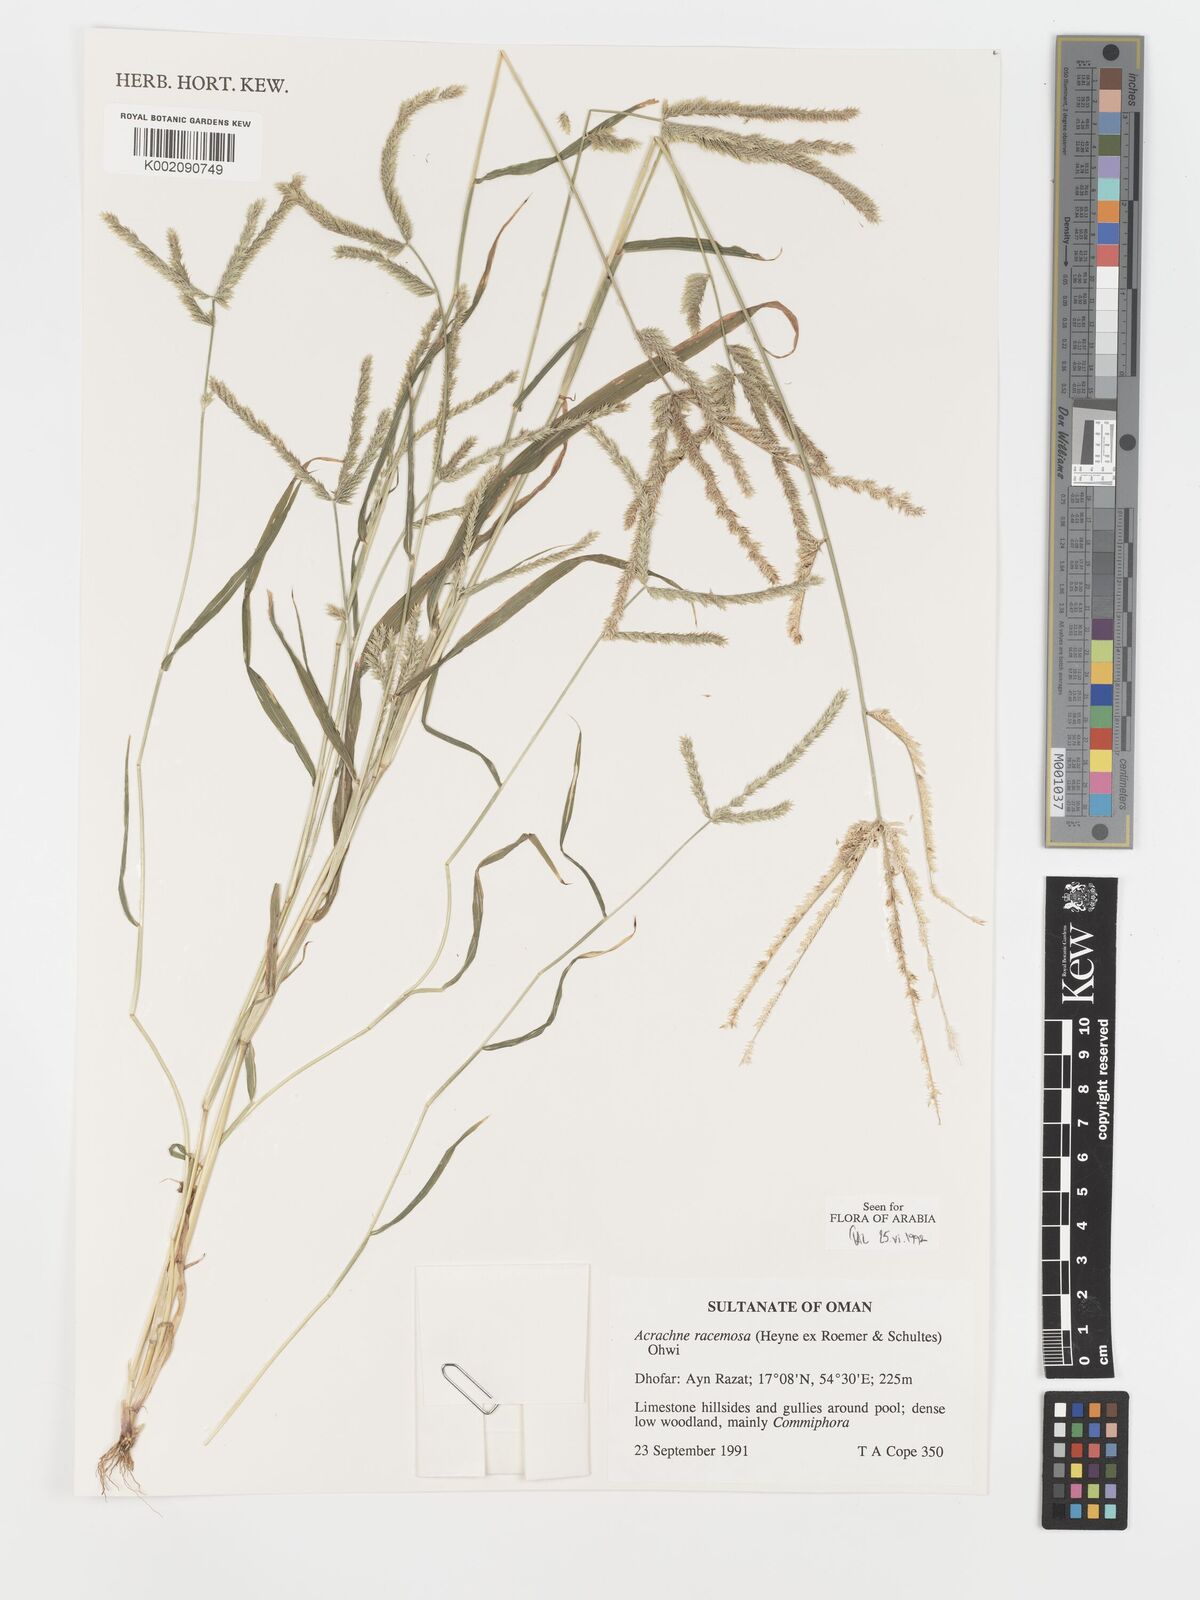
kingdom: Plantae
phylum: Tracheophyta
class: Liliopsida
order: Poales
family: Poaceae
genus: Acrachne
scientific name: Acrachne racemosa
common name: Goosegrass
